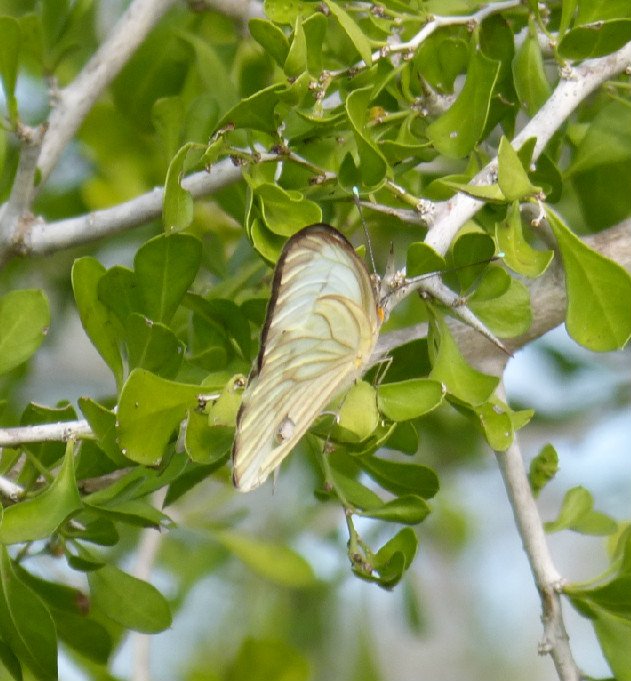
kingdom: Animalia
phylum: Arthropoda
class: Insecta
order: Lepidoptera
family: Pieridae
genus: Ascia
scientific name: Ascia monuste
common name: Great Southern White
